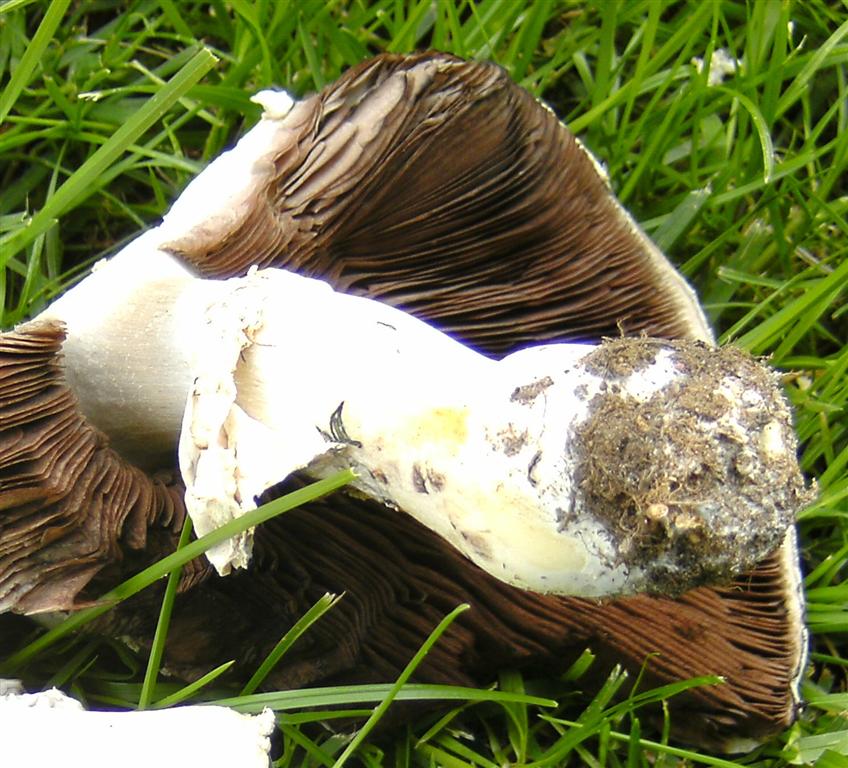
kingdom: Fungi
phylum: Basidiomycota
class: Agaricomycetes
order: Agaricales
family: Agaricaceae
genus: Agaricus
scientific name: Agaricus arvensis
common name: ager-champignon
